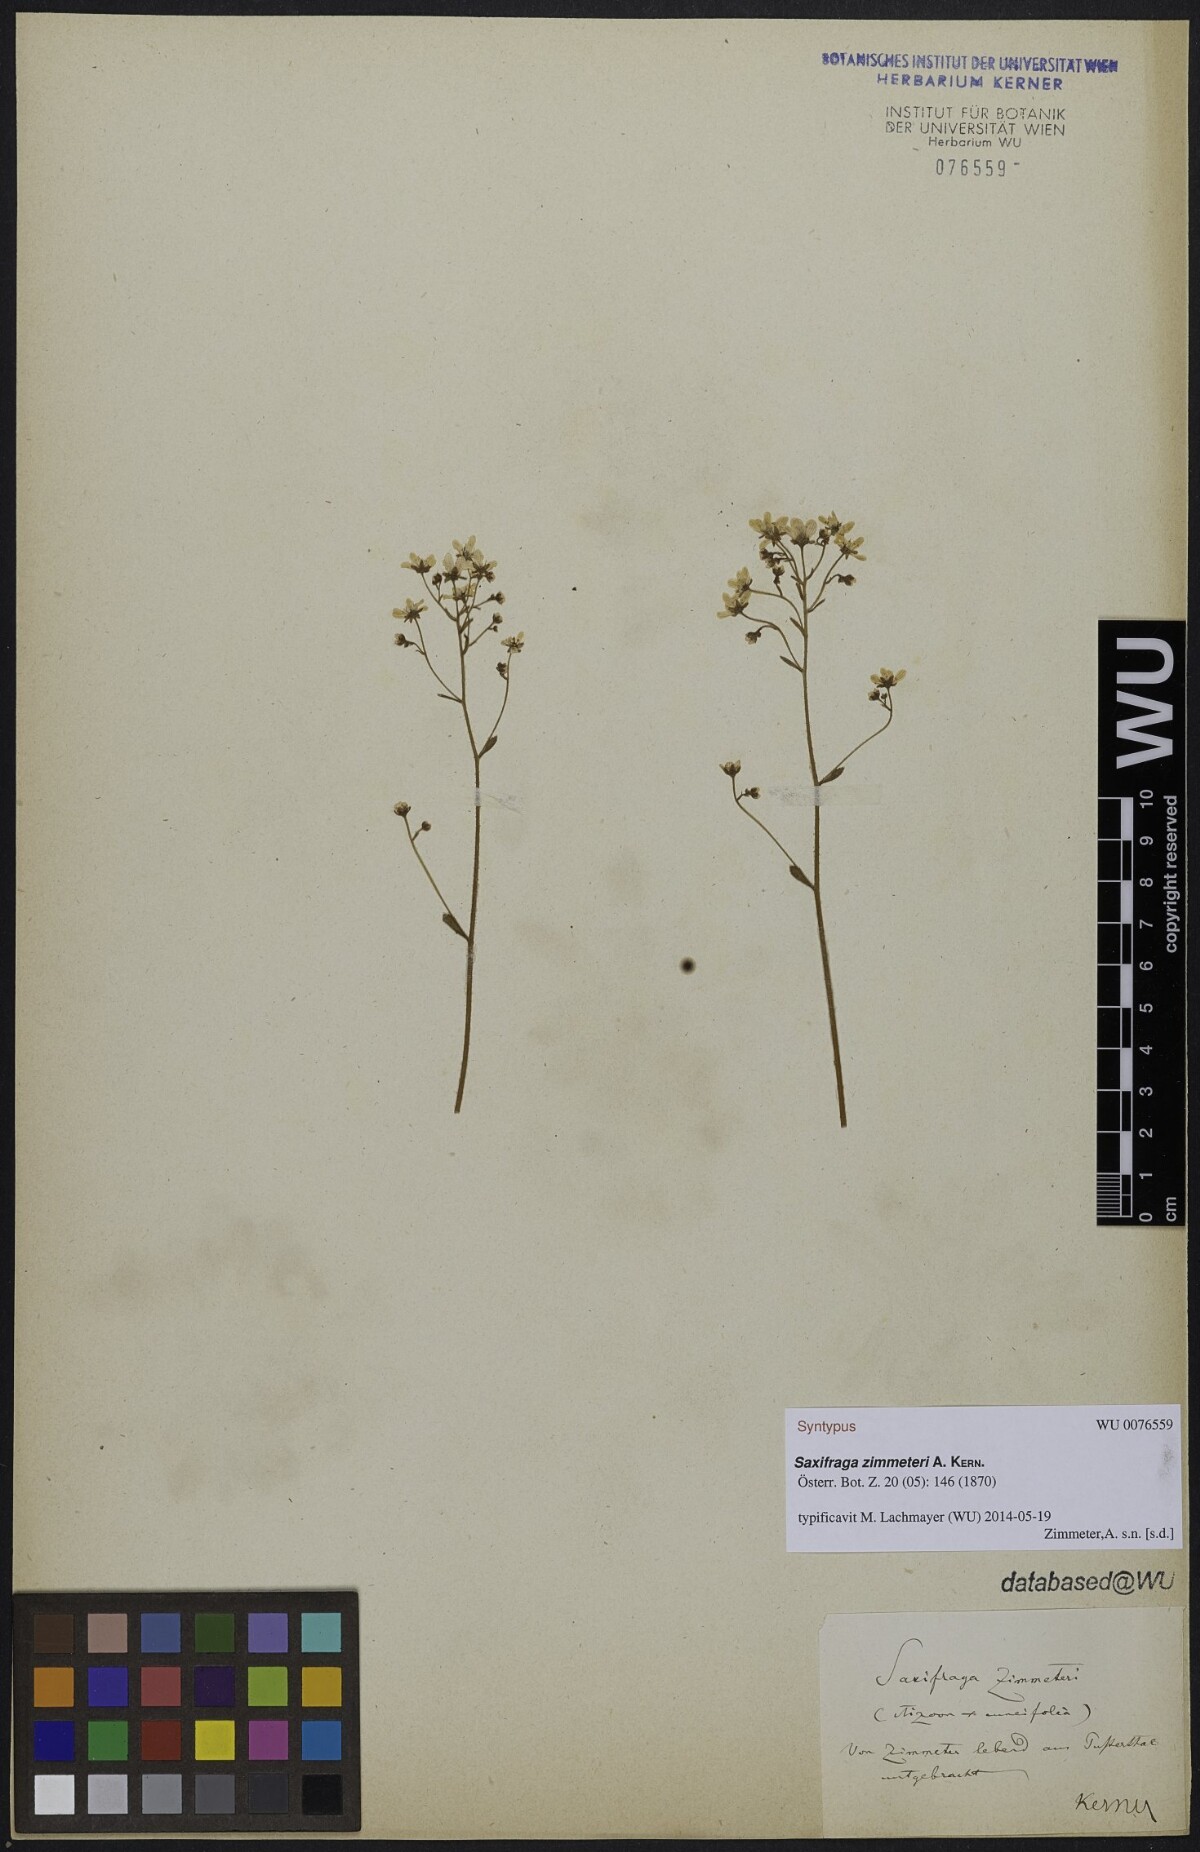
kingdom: Plantae
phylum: Tracheophyta
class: Magnoliopsida
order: Saxifragales
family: Saxifragaceae
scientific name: Saxifragaceae
